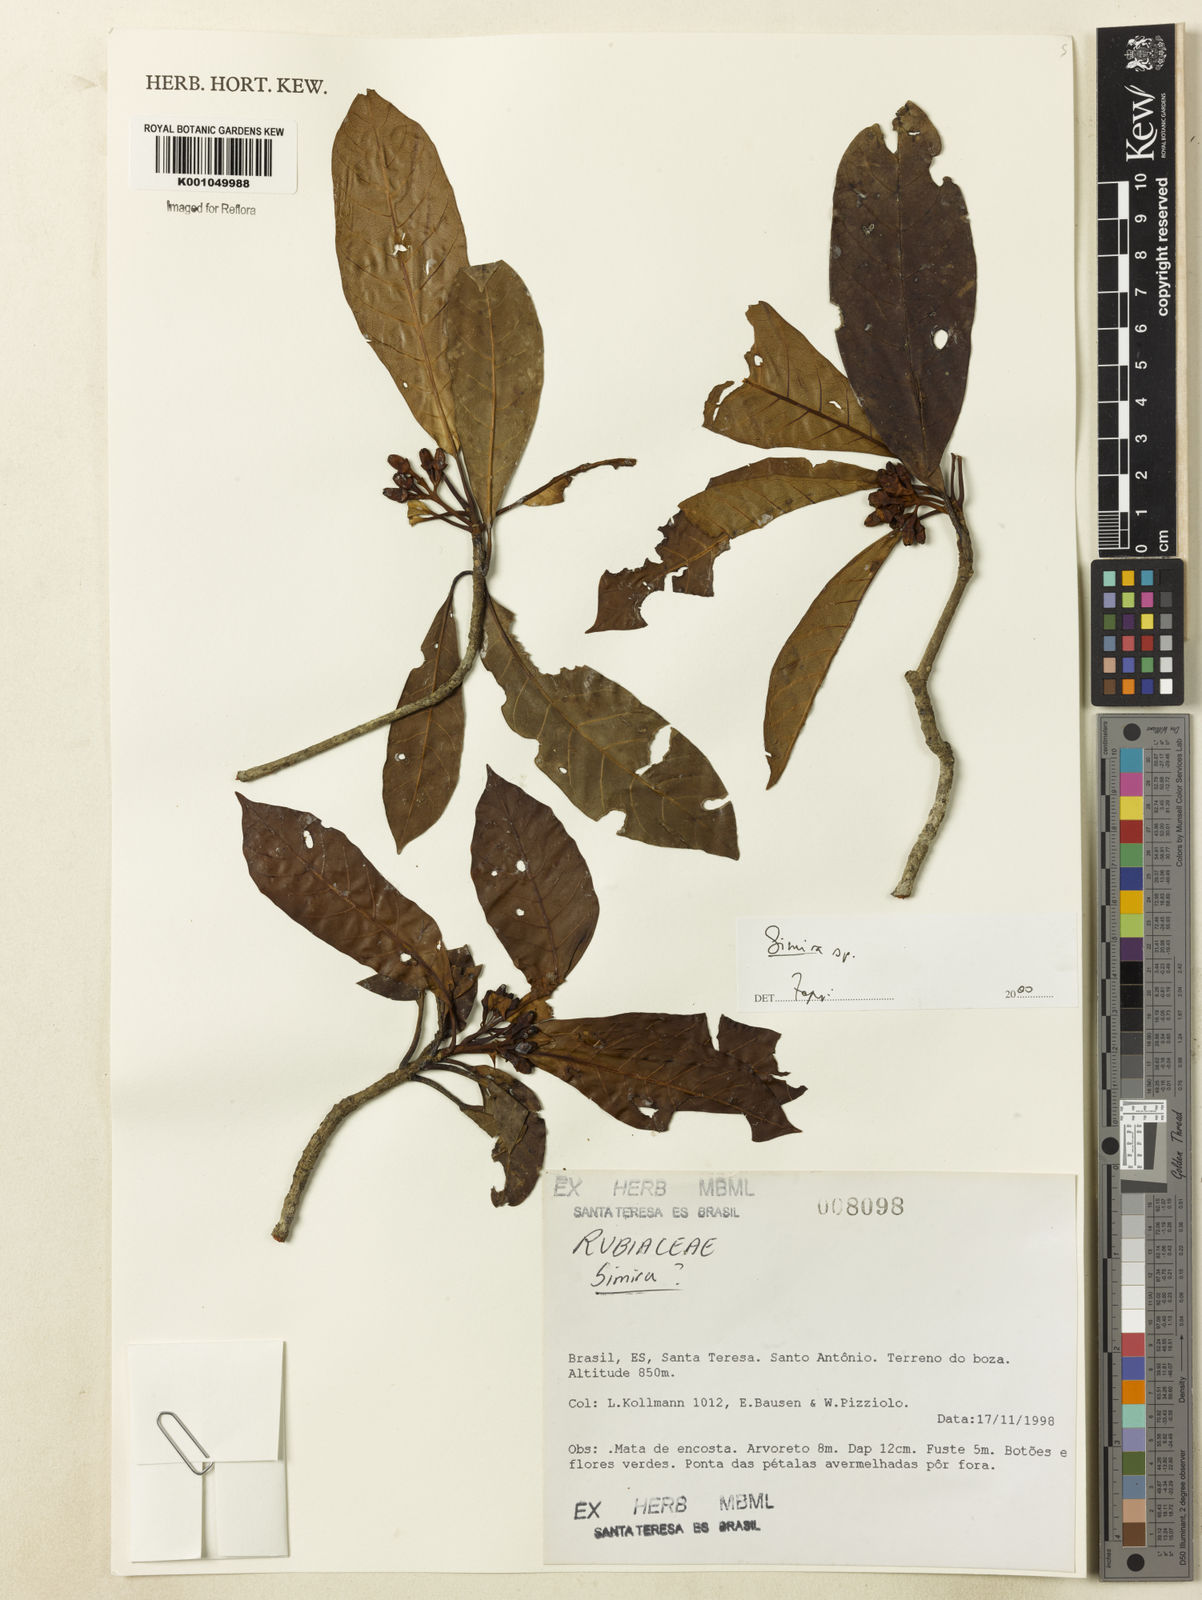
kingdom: Plantae
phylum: Tracheophyta
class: Magnoliopsida
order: Gentianales
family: Rubiaceae
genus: Simira
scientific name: Simira
